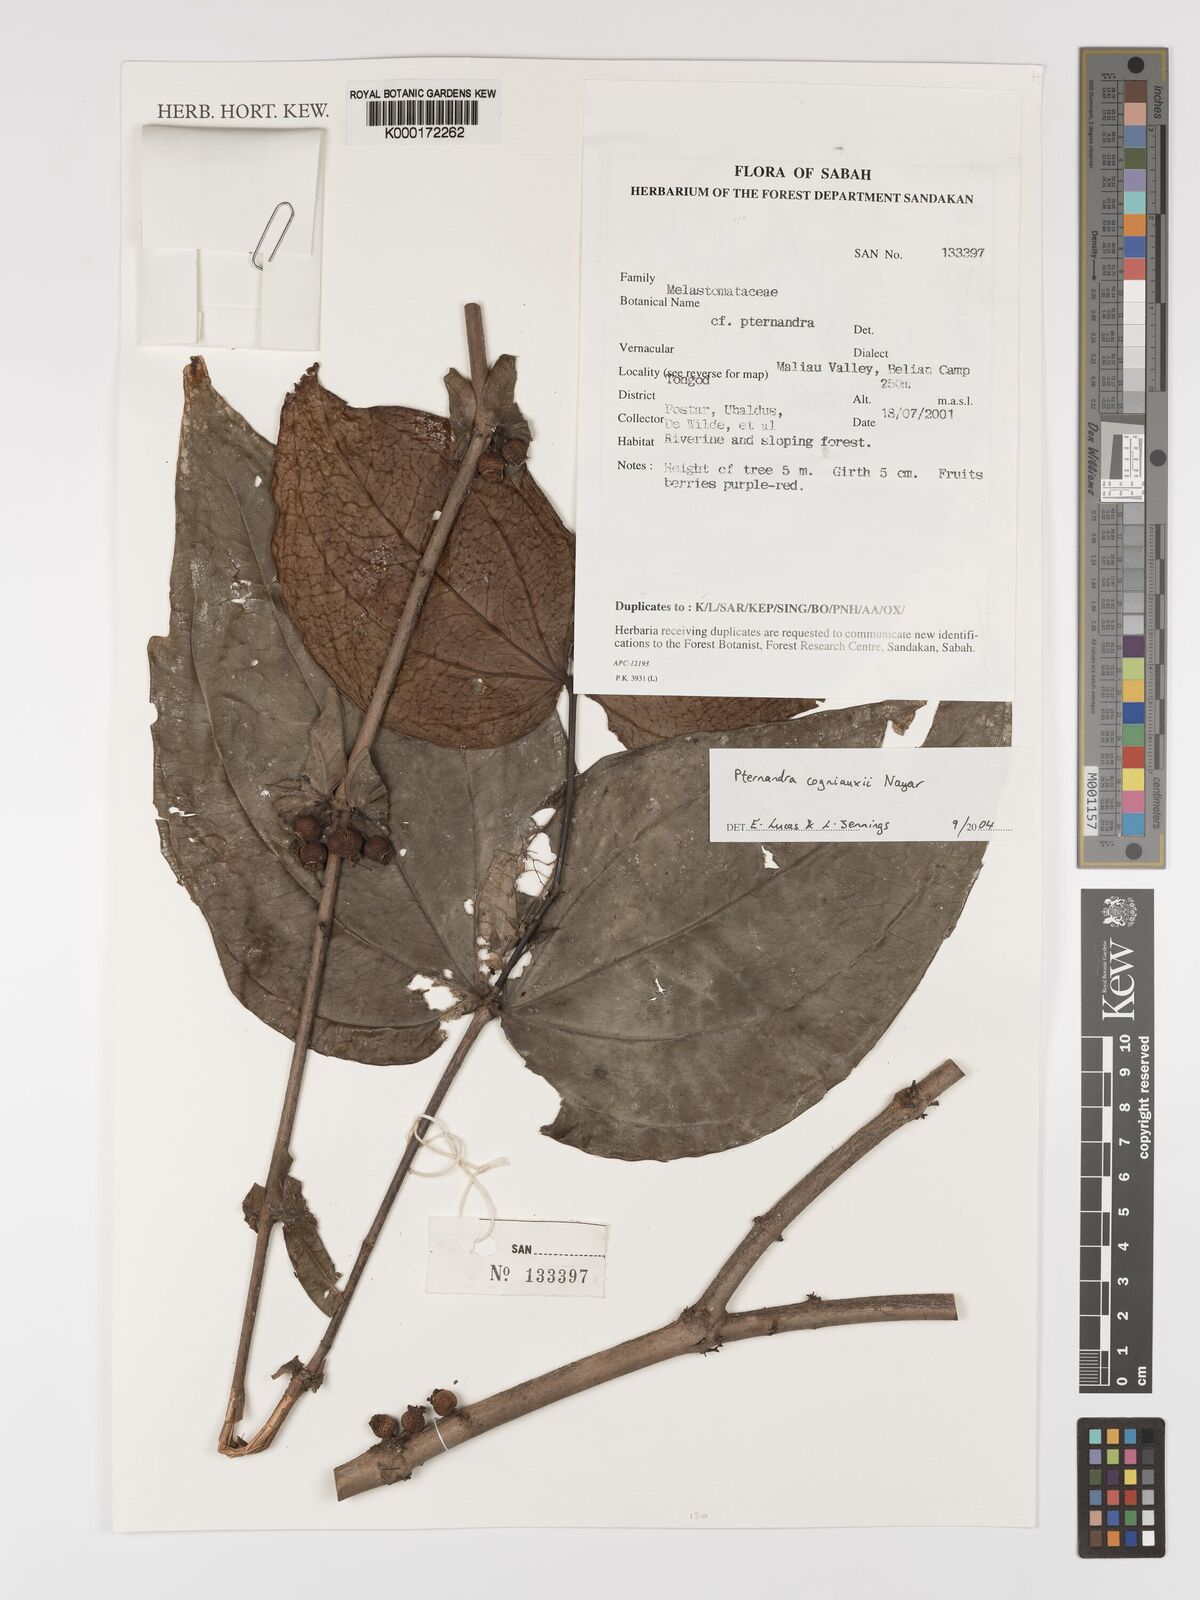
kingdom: Plantae
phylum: Tracheophyta
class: Magnoliopsida
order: Myrtales
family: Melastomataceae
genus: Pternandra
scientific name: Pternandra cogniauxii
